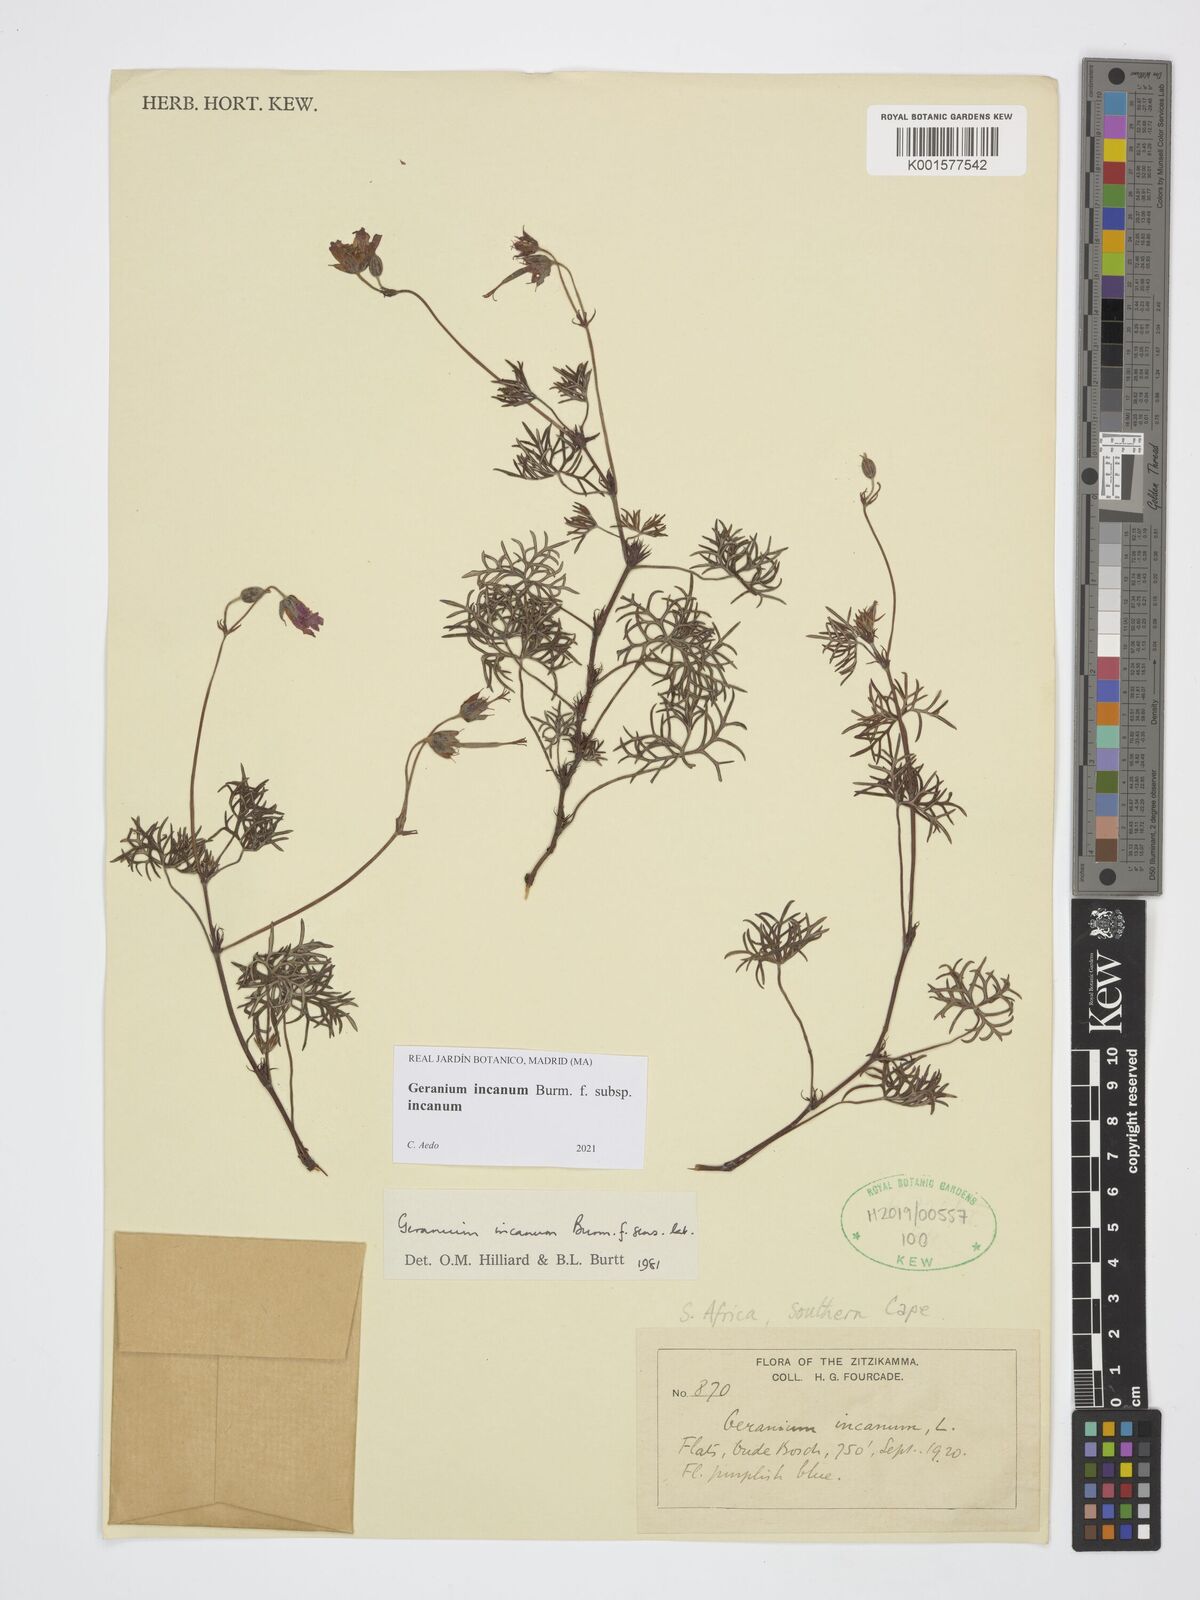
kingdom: Plantae
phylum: Tracheophyta
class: Magnoliopsida
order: Geraniales
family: Geraniaceae
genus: Geranium
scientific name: Geranium incanum
